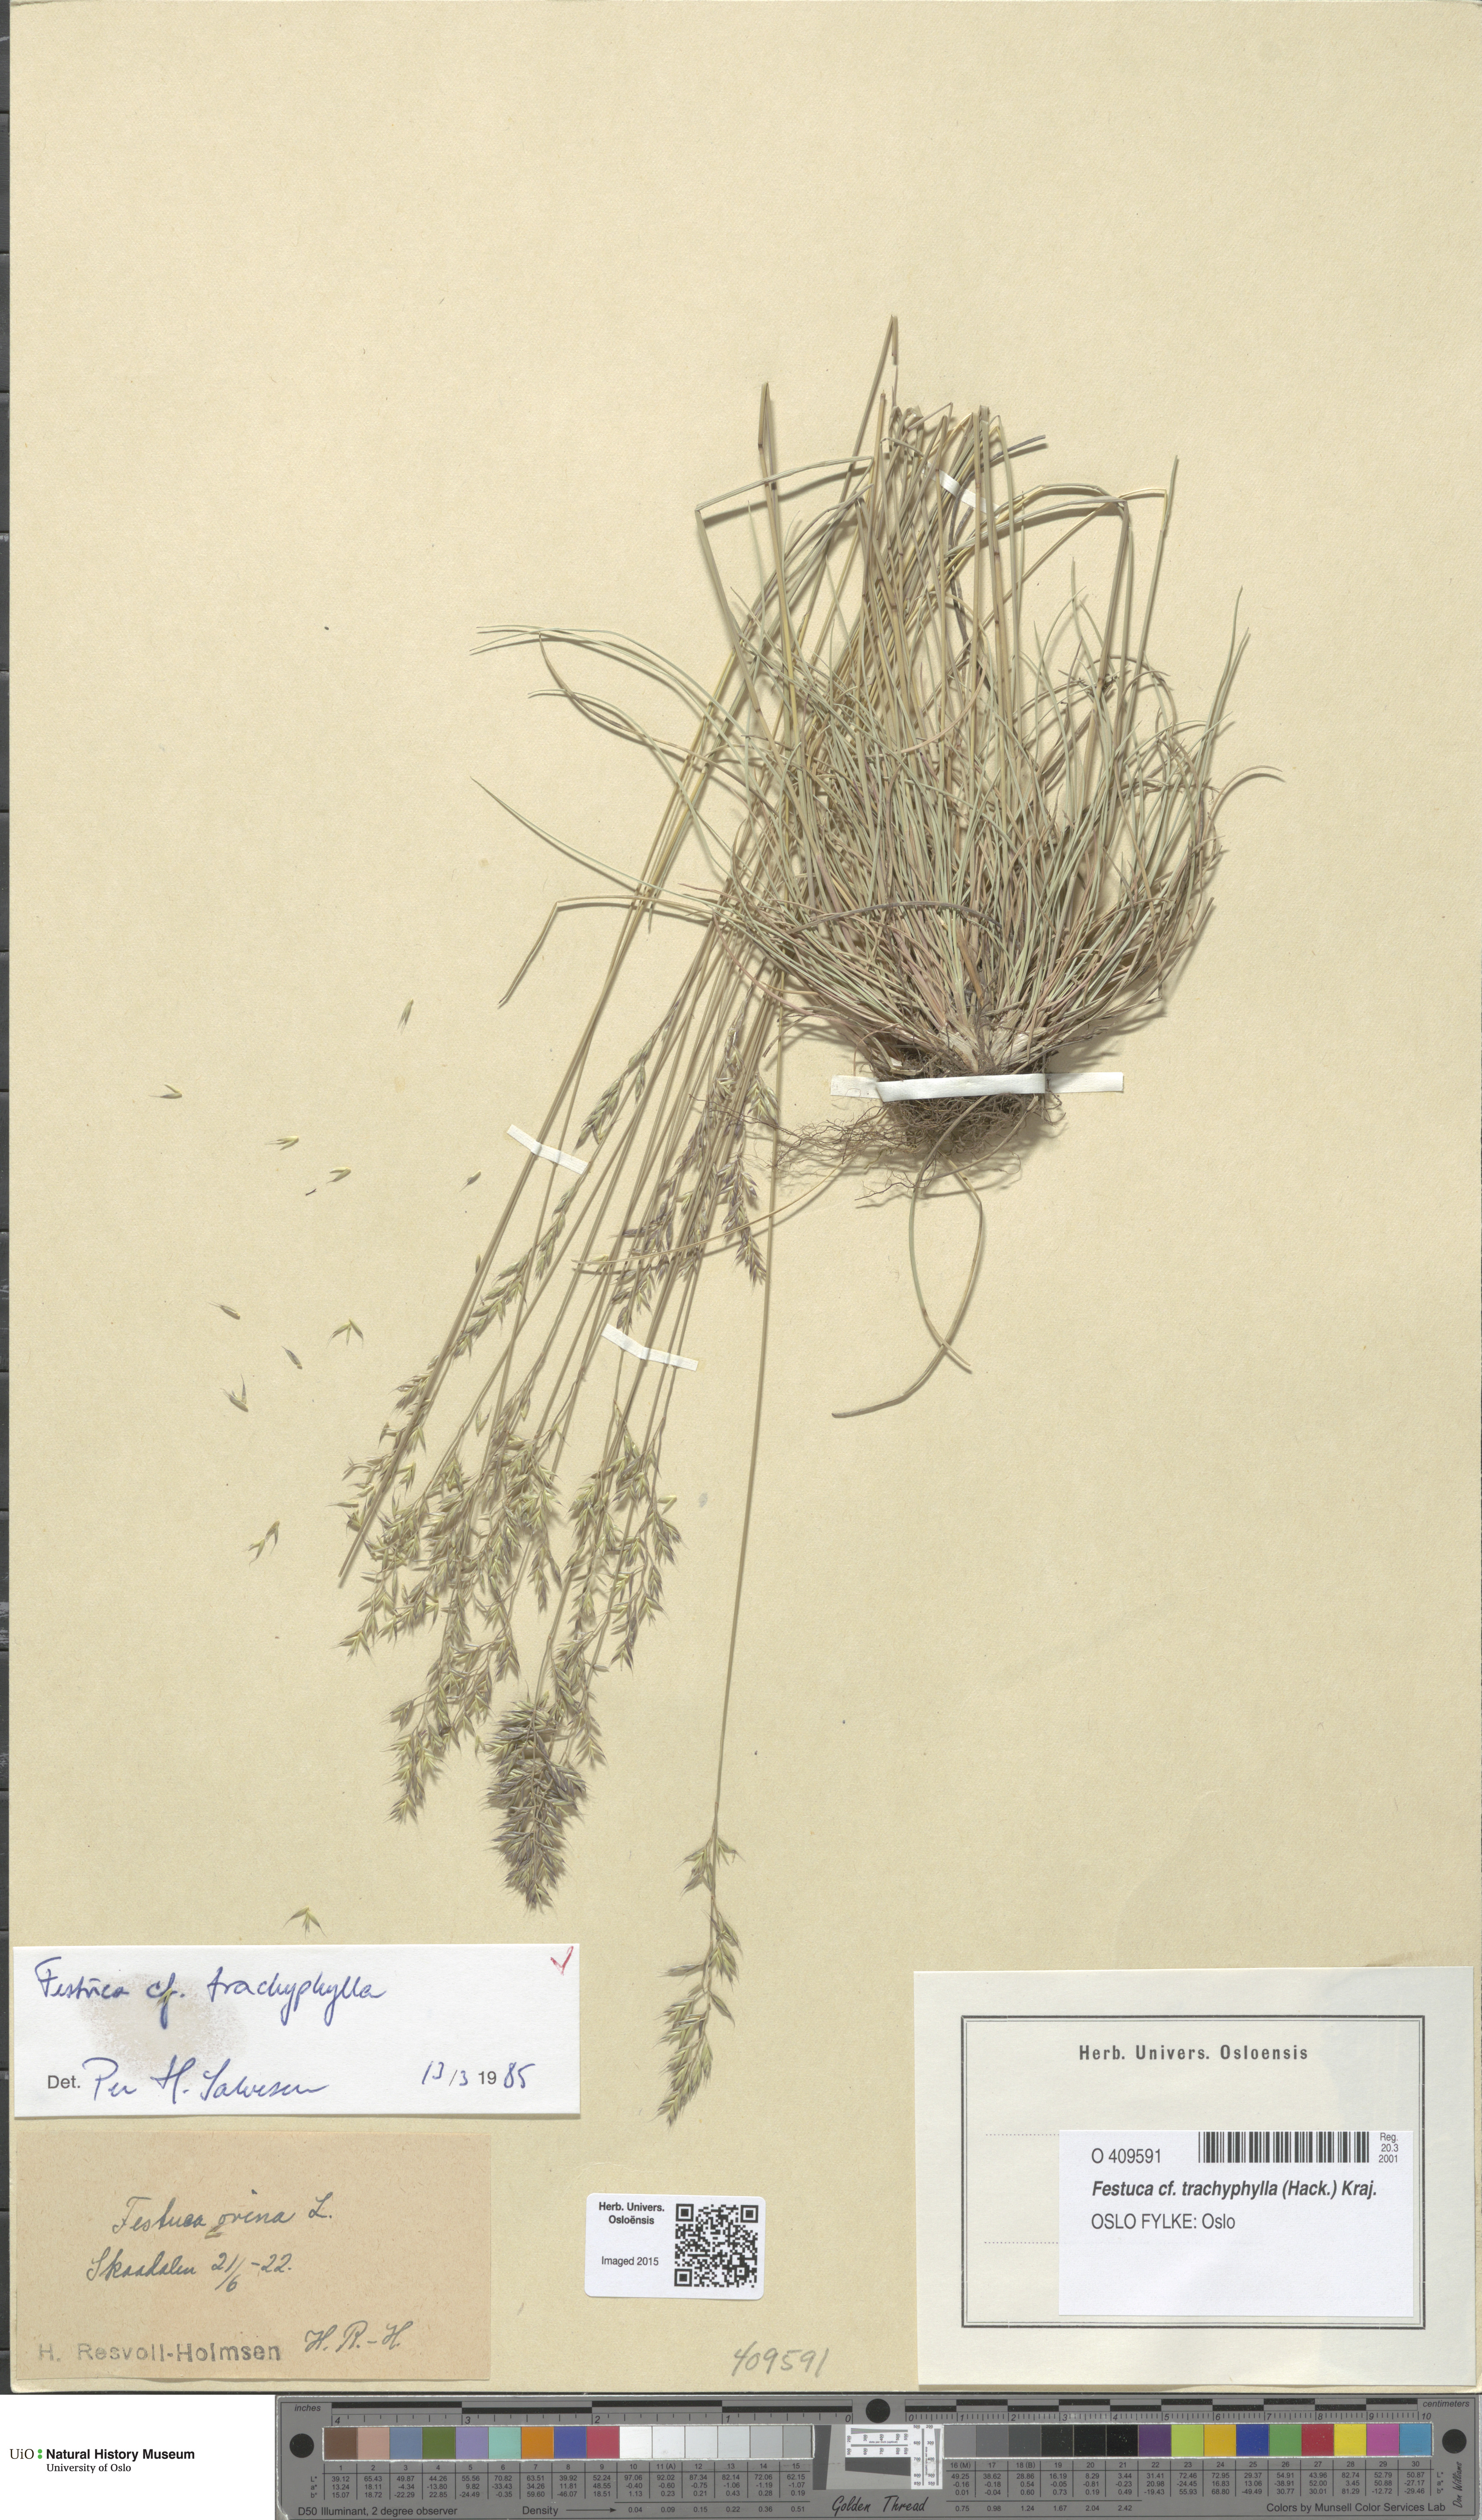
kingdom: Plantae
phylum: Tracheophyta
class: Liliopsida
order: Poales
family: Poaceae
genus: Festuca
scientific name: Festuca trachyphylla
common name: Hard fescue
